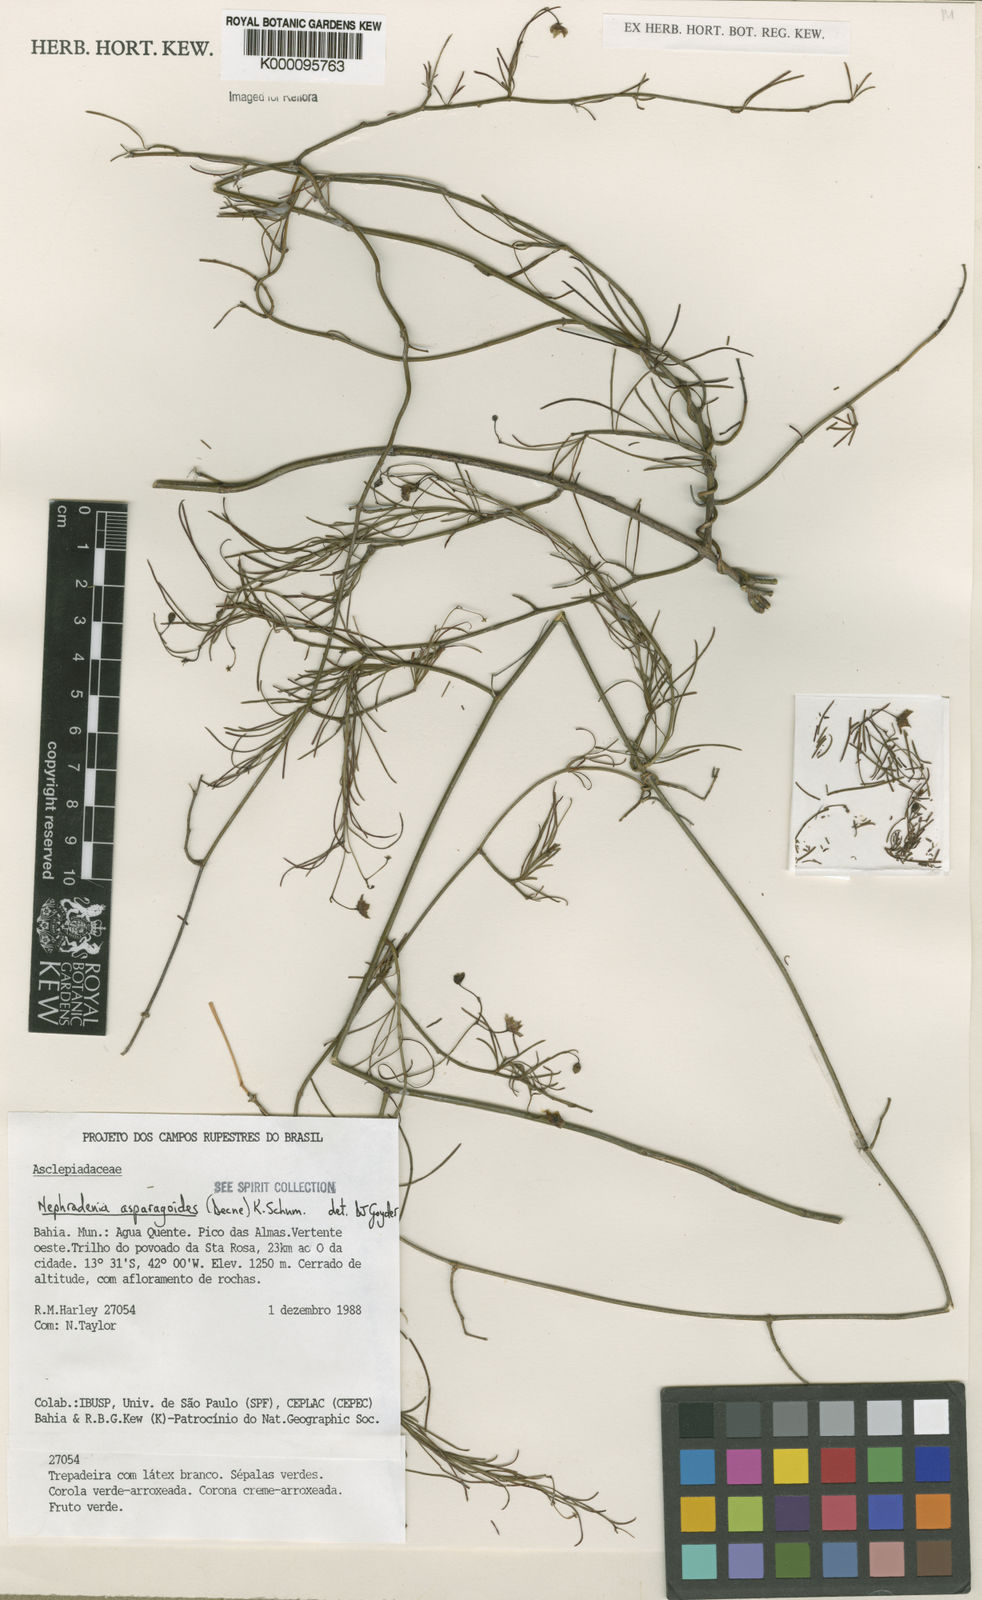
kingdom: Plantae
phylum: Tracheophyta
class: Magnoliopsida
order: Gentianales
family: Apocynaceae
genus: Nephradenia
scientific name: Nephradenia asparagoides
